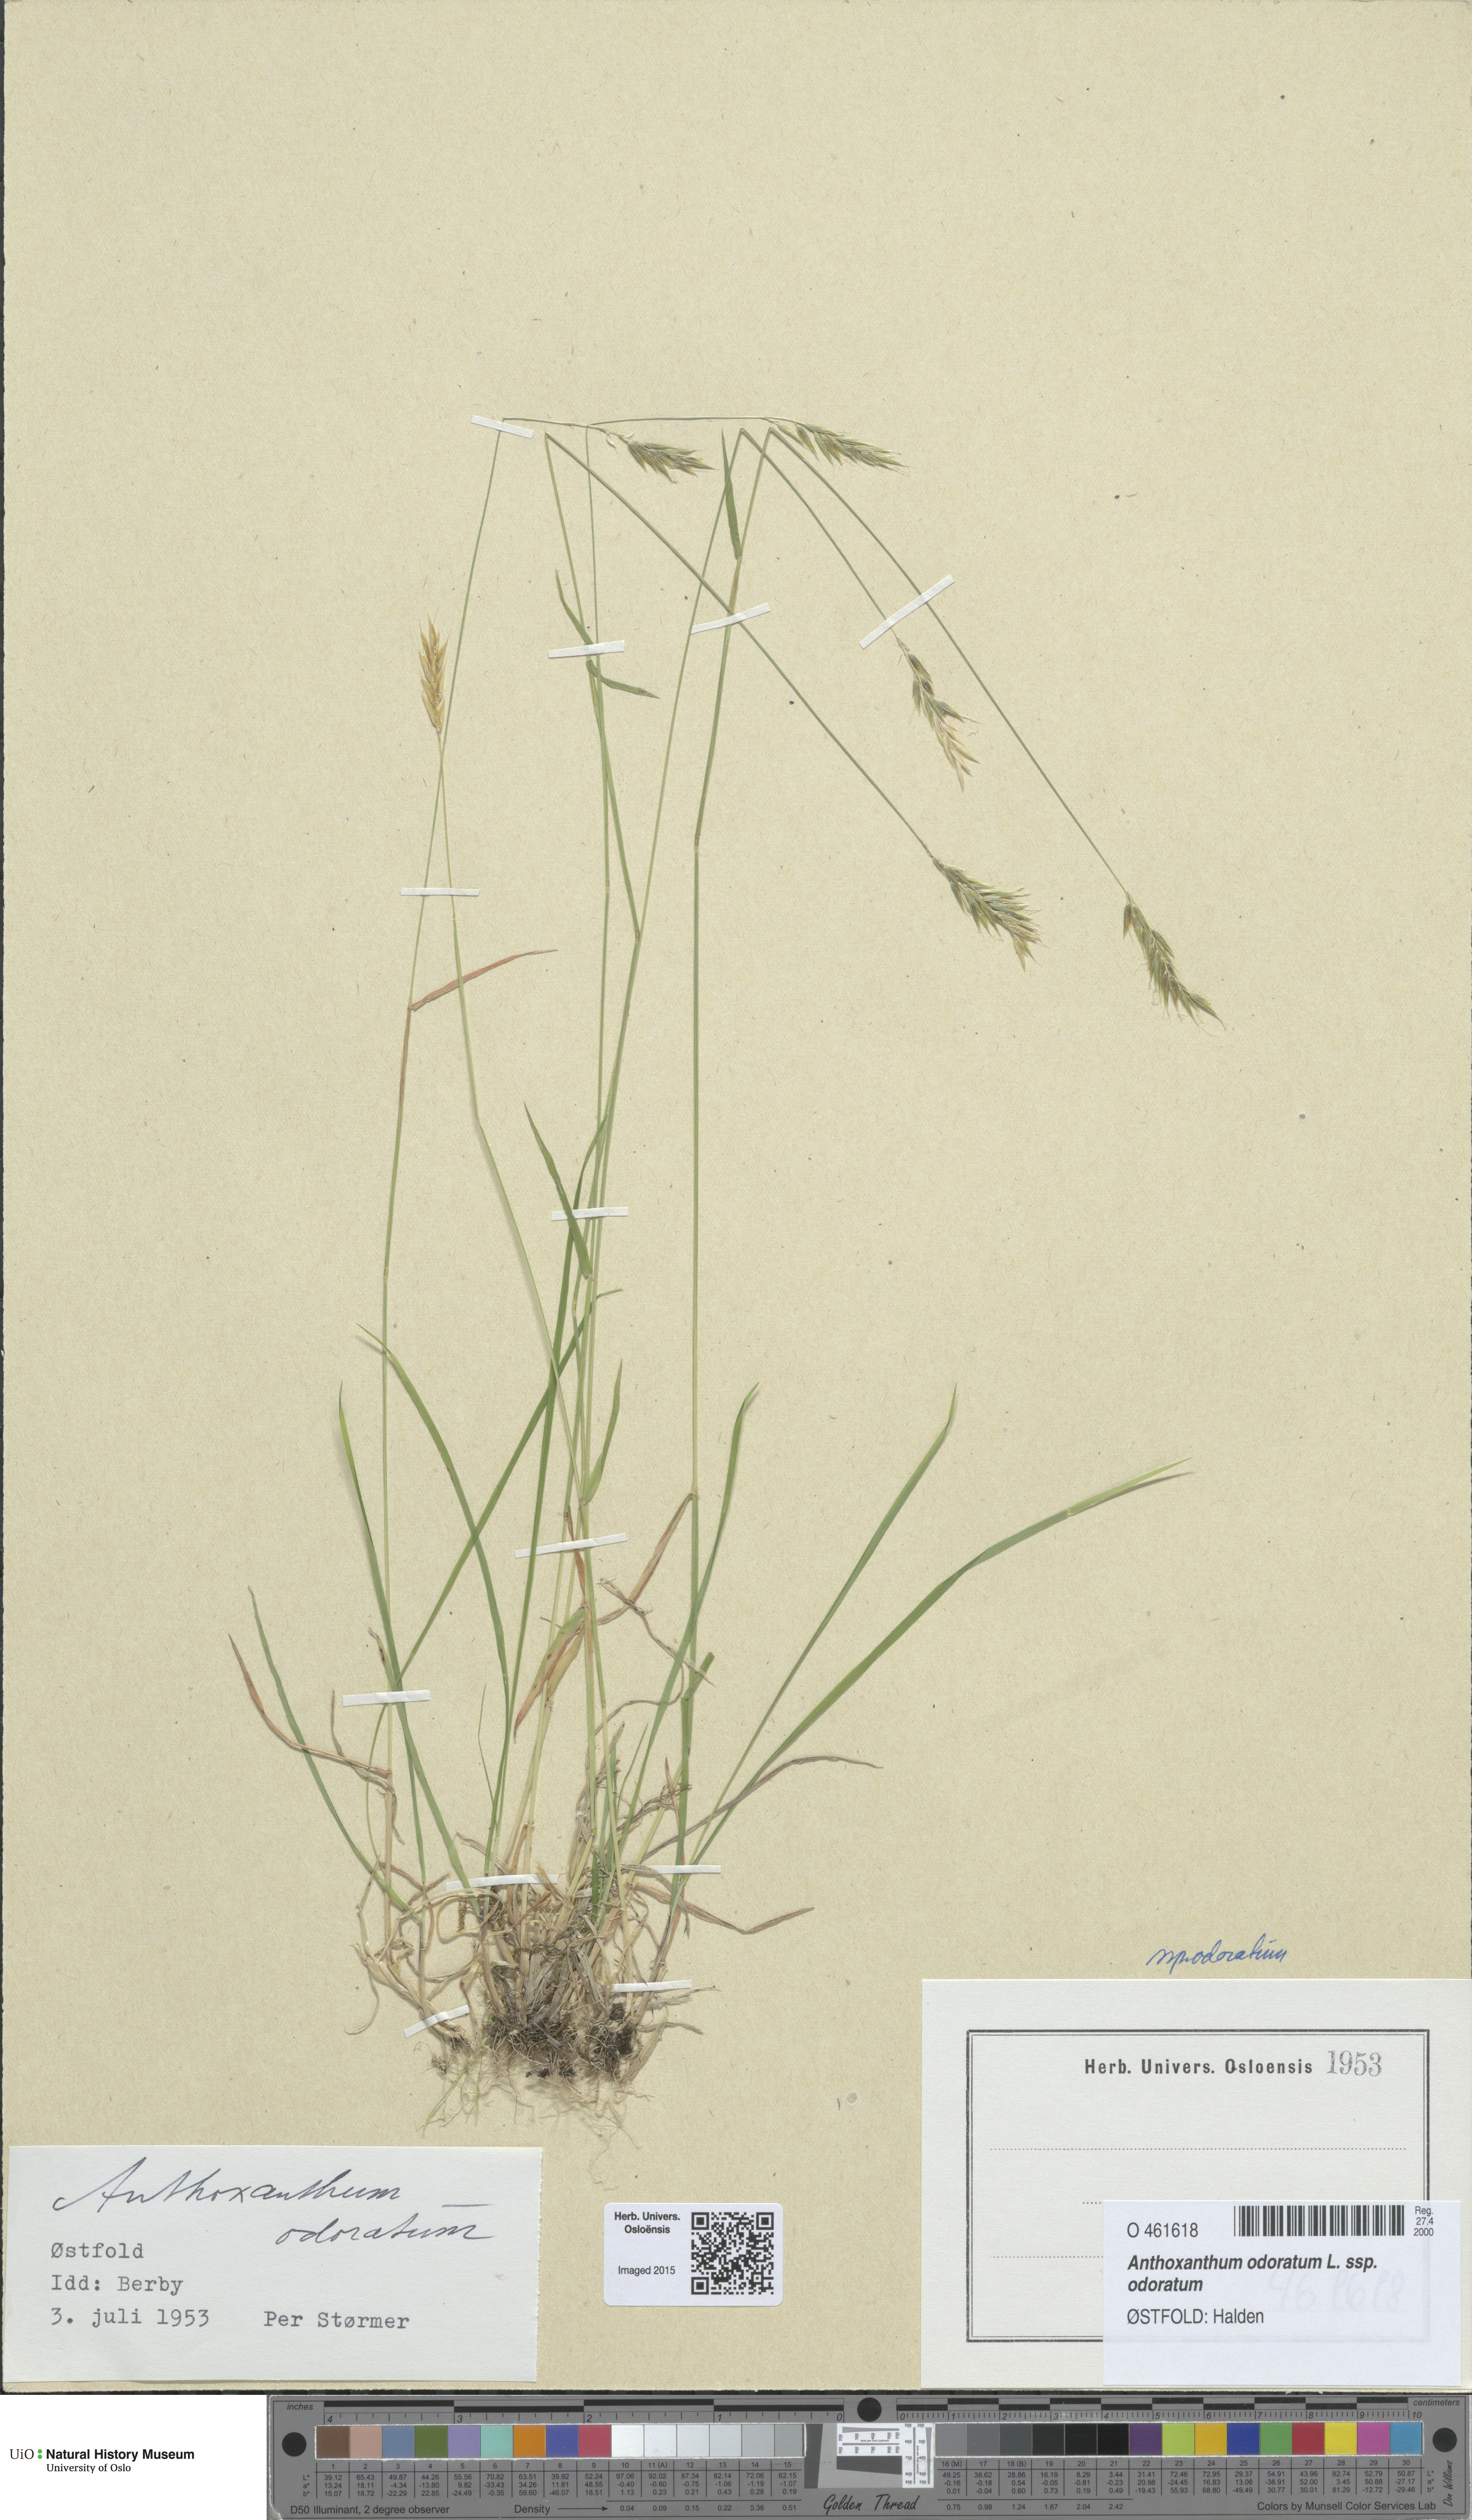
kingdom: Plantae
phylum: Tracheophyta
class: Liliopsida
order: Poales
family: Poaceae
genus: Anthoxanthum
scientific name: Anthoxanthum odoratum
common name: Sweet vernalgrass
